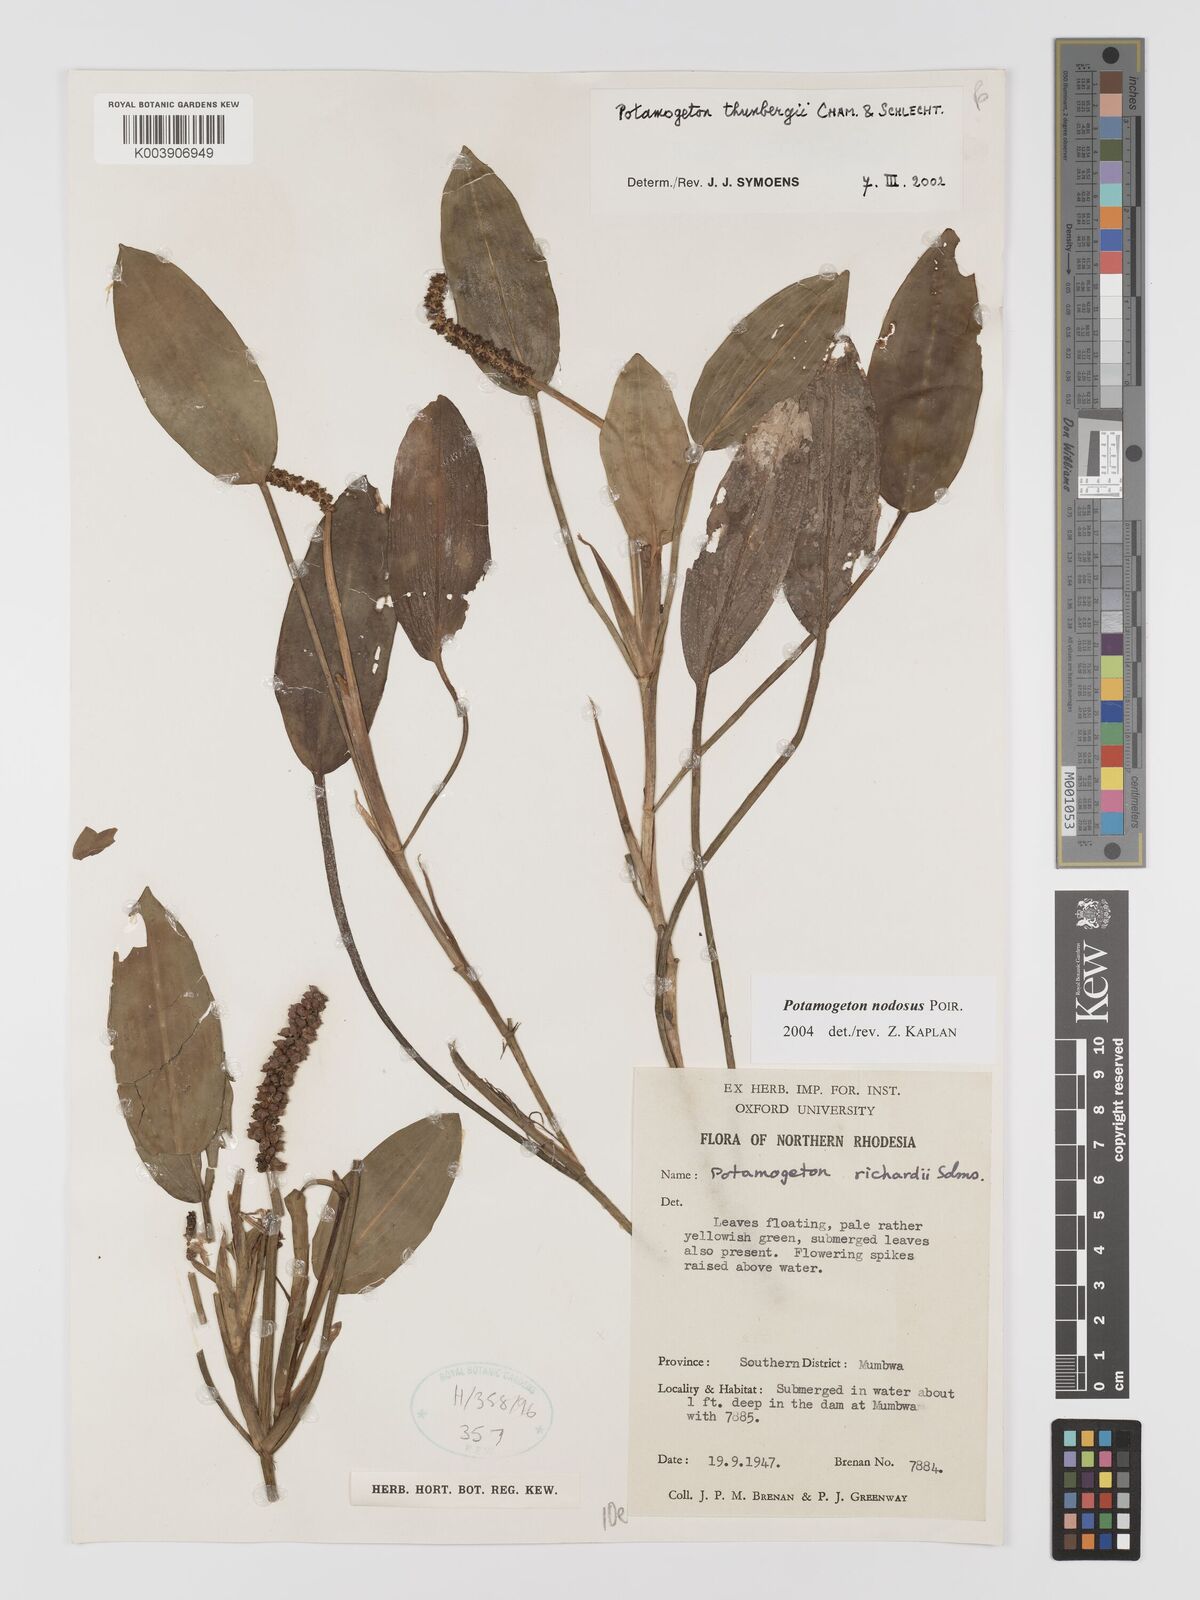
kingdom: Plantae
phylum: Tracheophyta
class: Liliopsida
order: Alismatales
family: Potamogetonaceae
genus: Potamogeton
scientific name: Potamogeton nodosus
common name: Loddon pondweed
